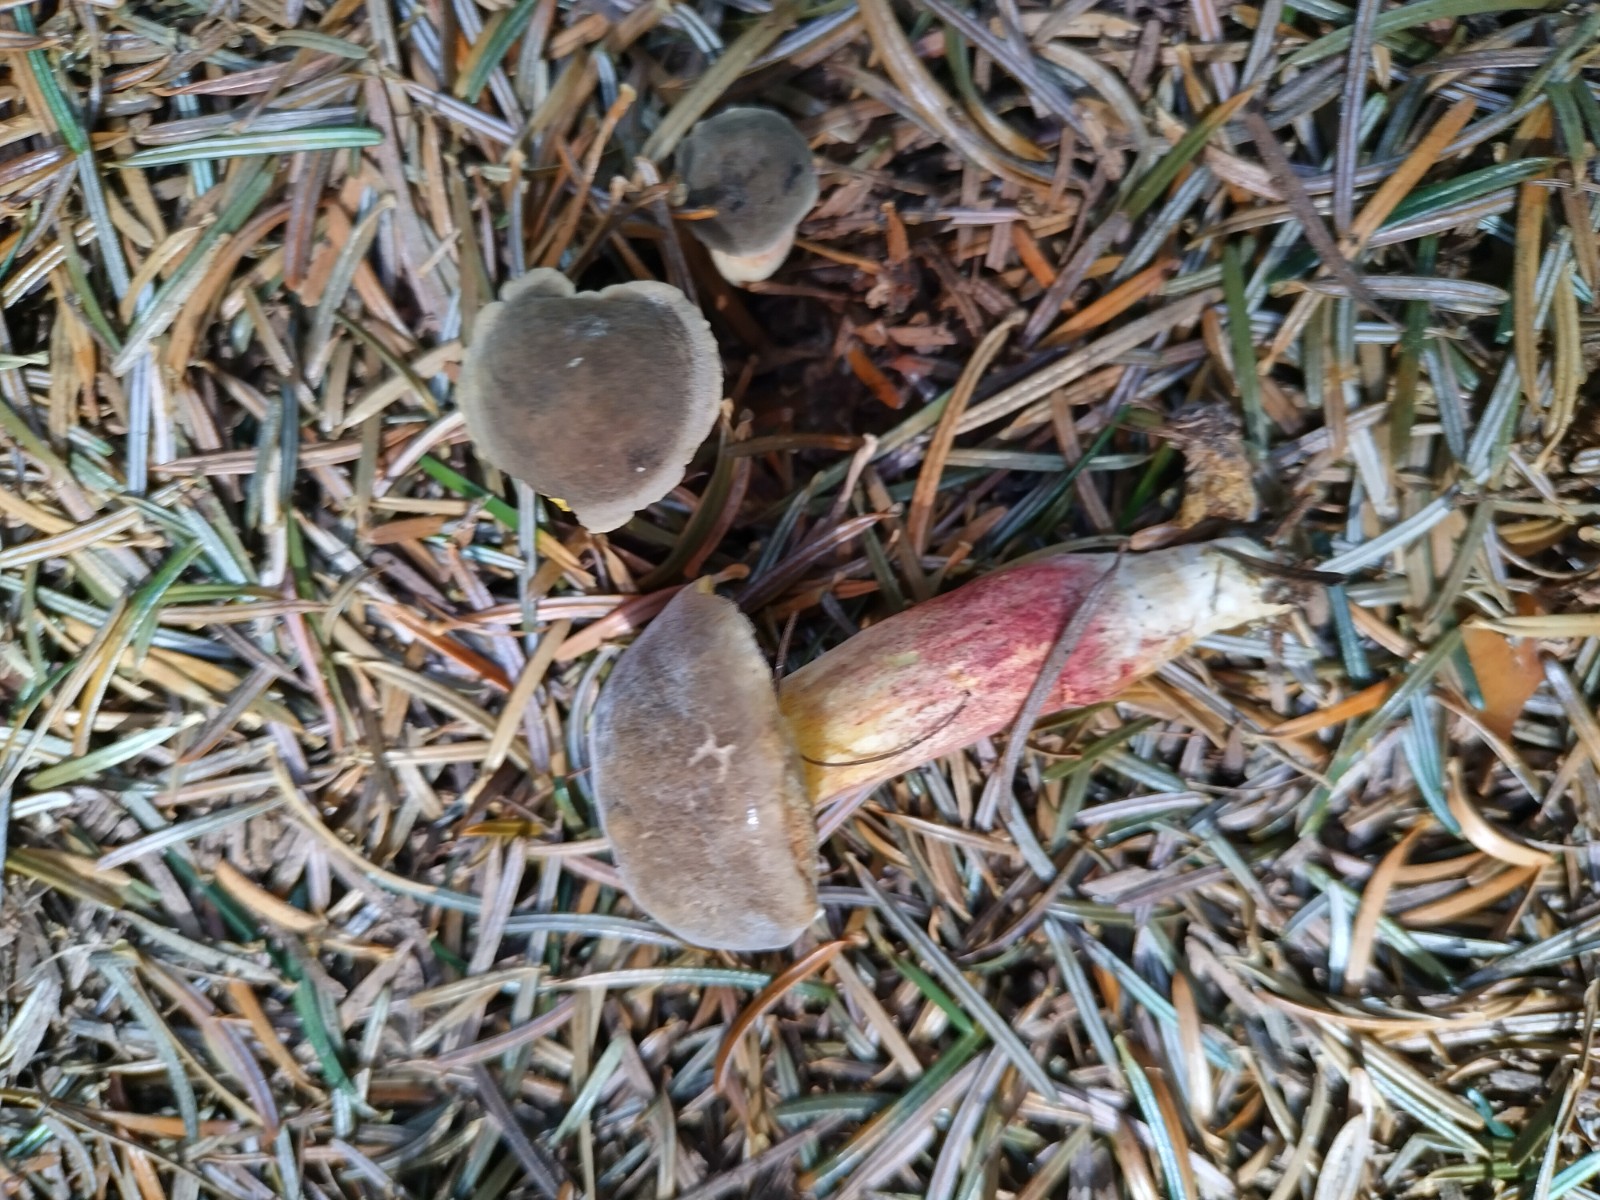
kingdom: Fungi
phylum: Basidiomycota
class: Agaricomycetes
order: Boletales
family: Boletaceae
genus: Xerocomellus
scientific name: Xerocomellus pruinatus
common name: dugget rørhat
